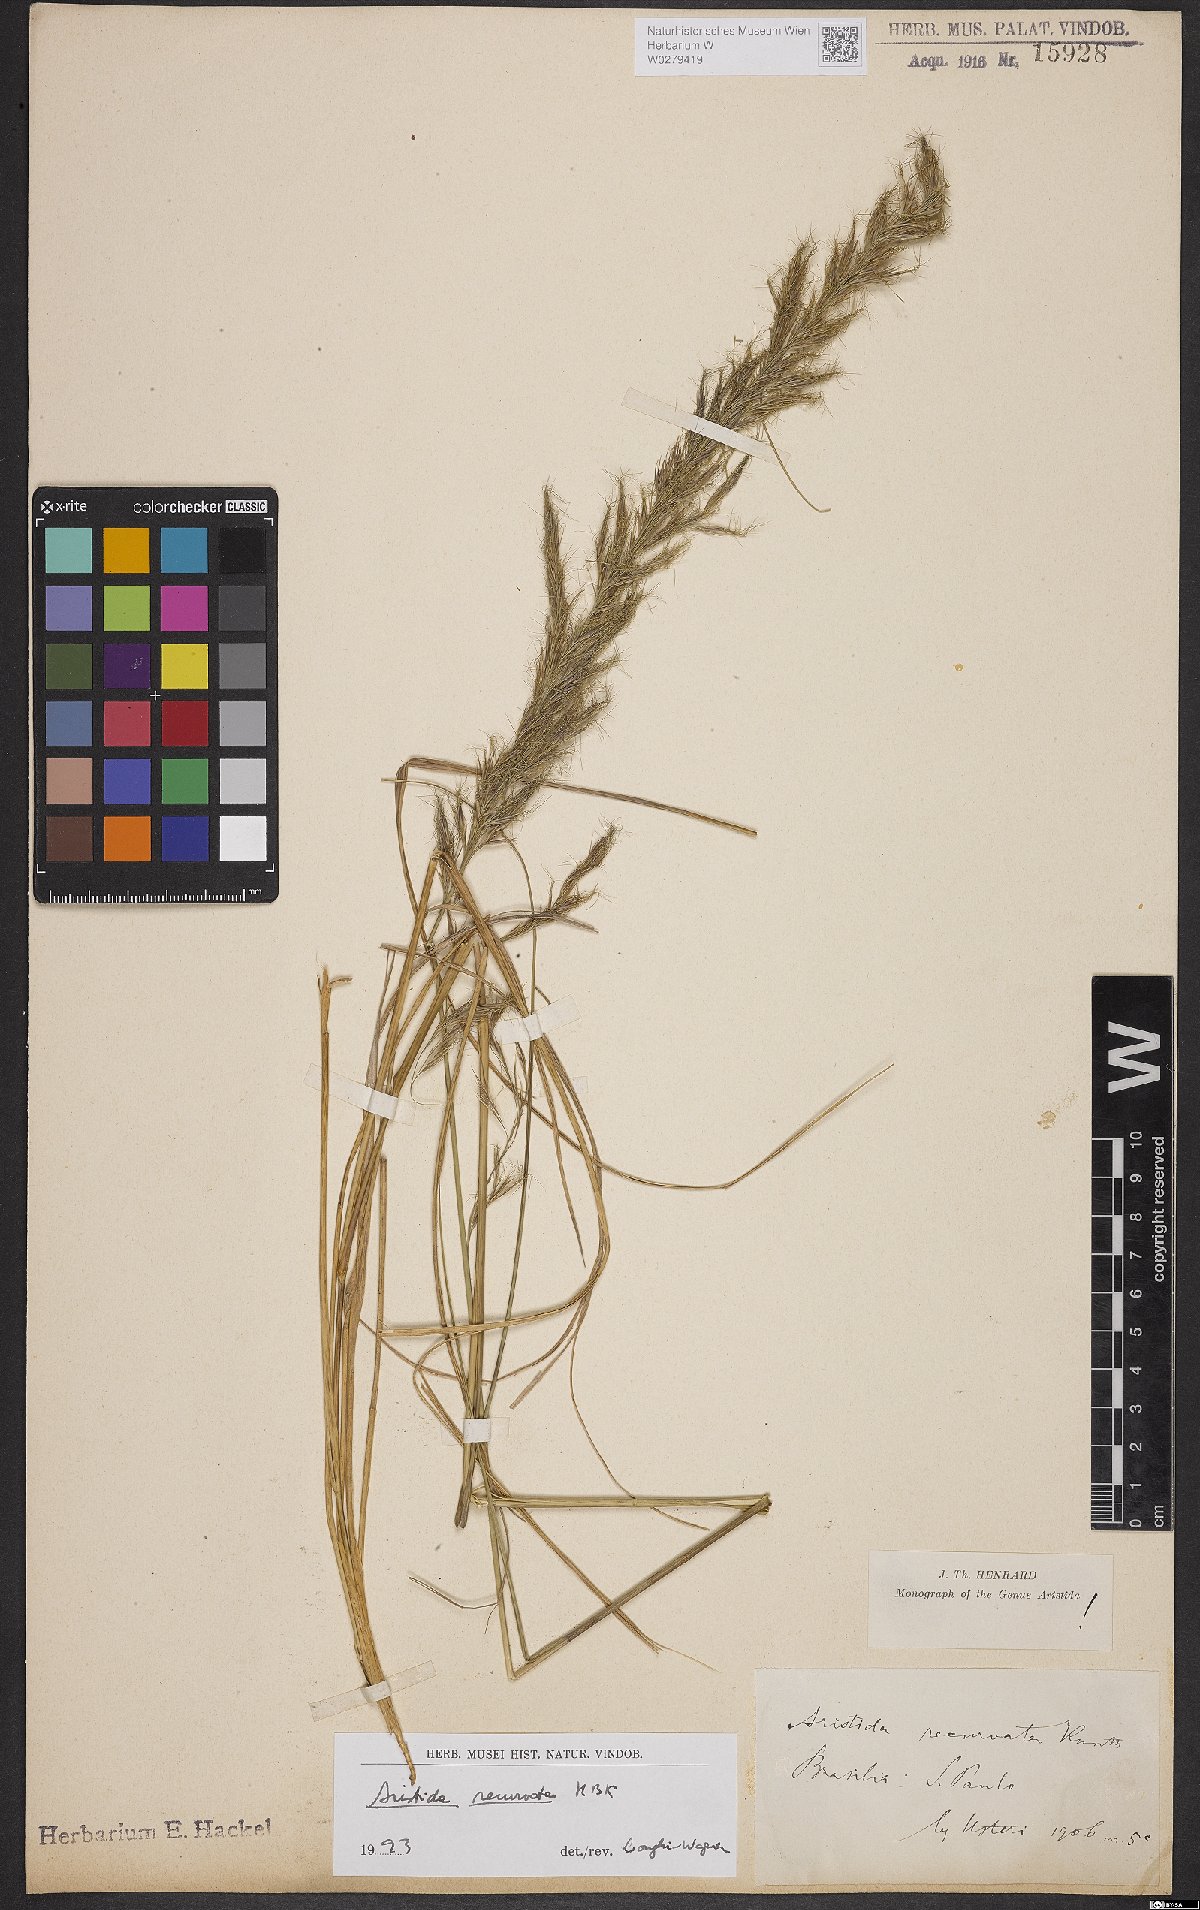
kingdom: Plantae
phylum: Tracheophyta
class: Liliopsida
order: Poales
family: Poaceae
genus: Aristida
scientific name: Aristida recurvata
